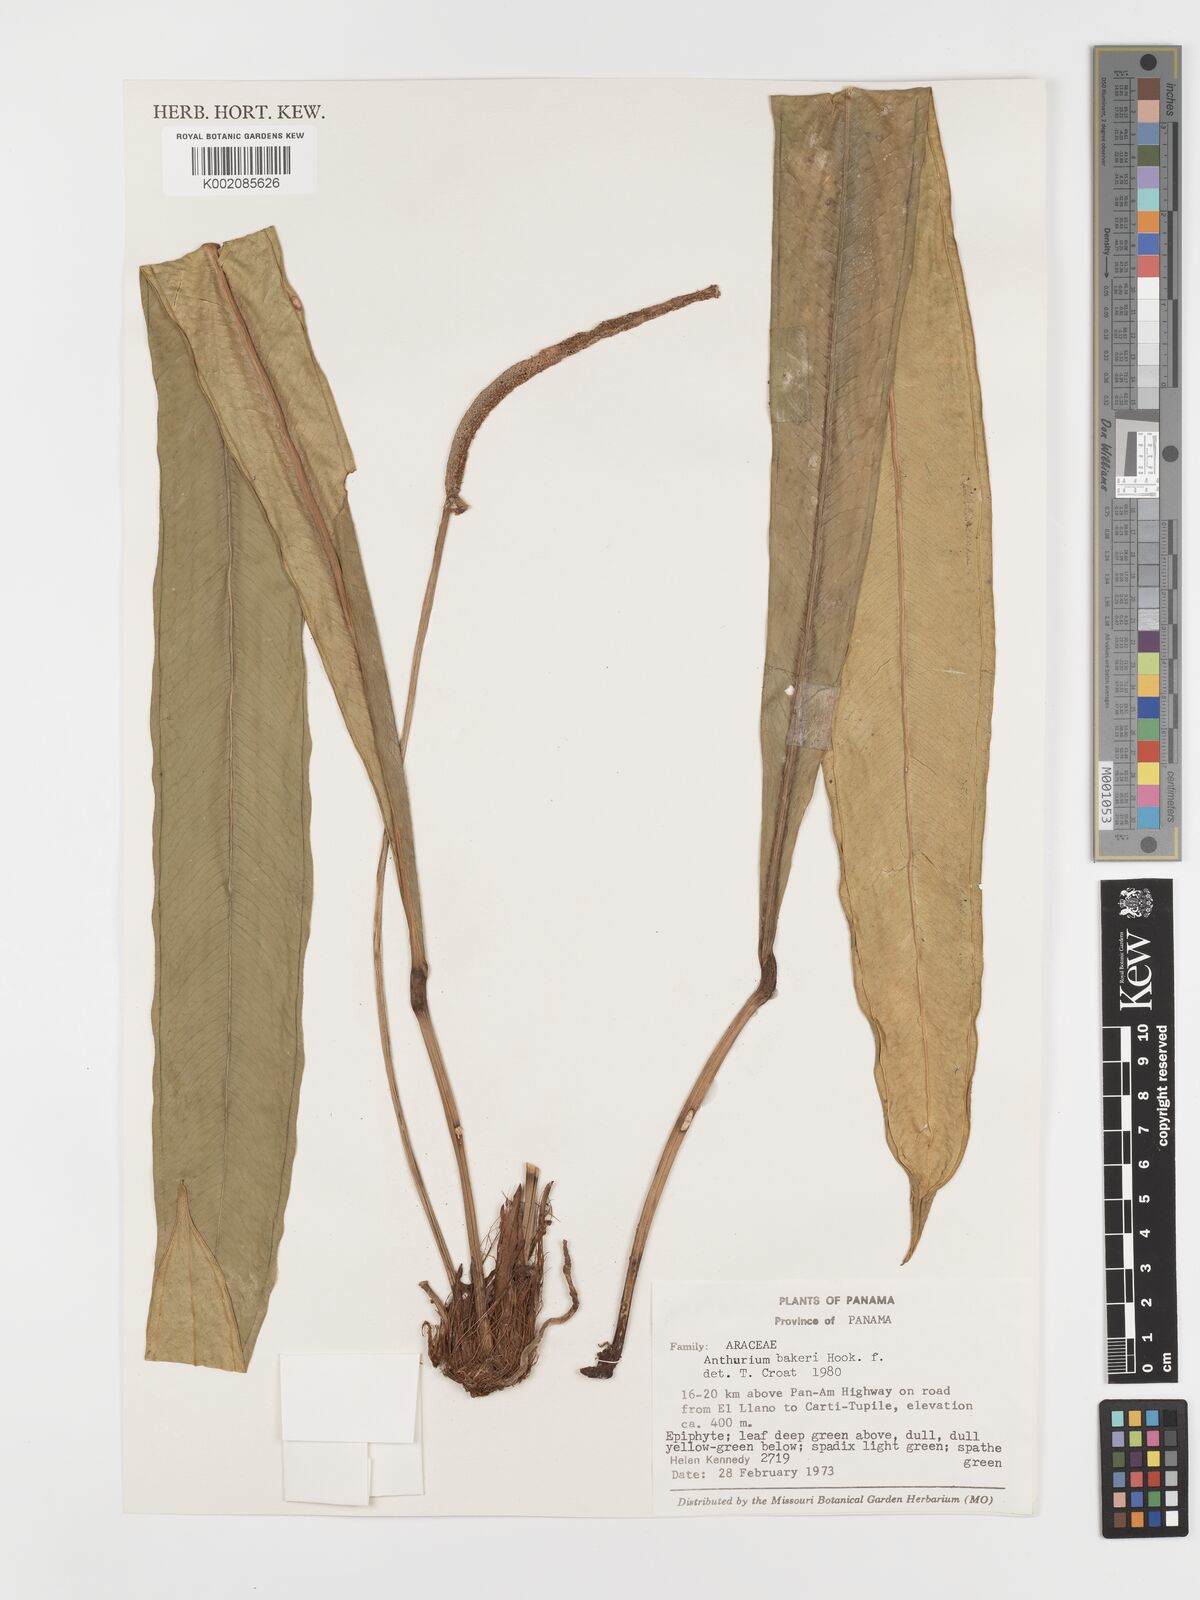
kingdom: Plantae
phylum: Tracheophyta
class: Liliopsida
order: Alismatales
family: Araceae
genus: Anthurium
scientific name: Anthurium bakeri
